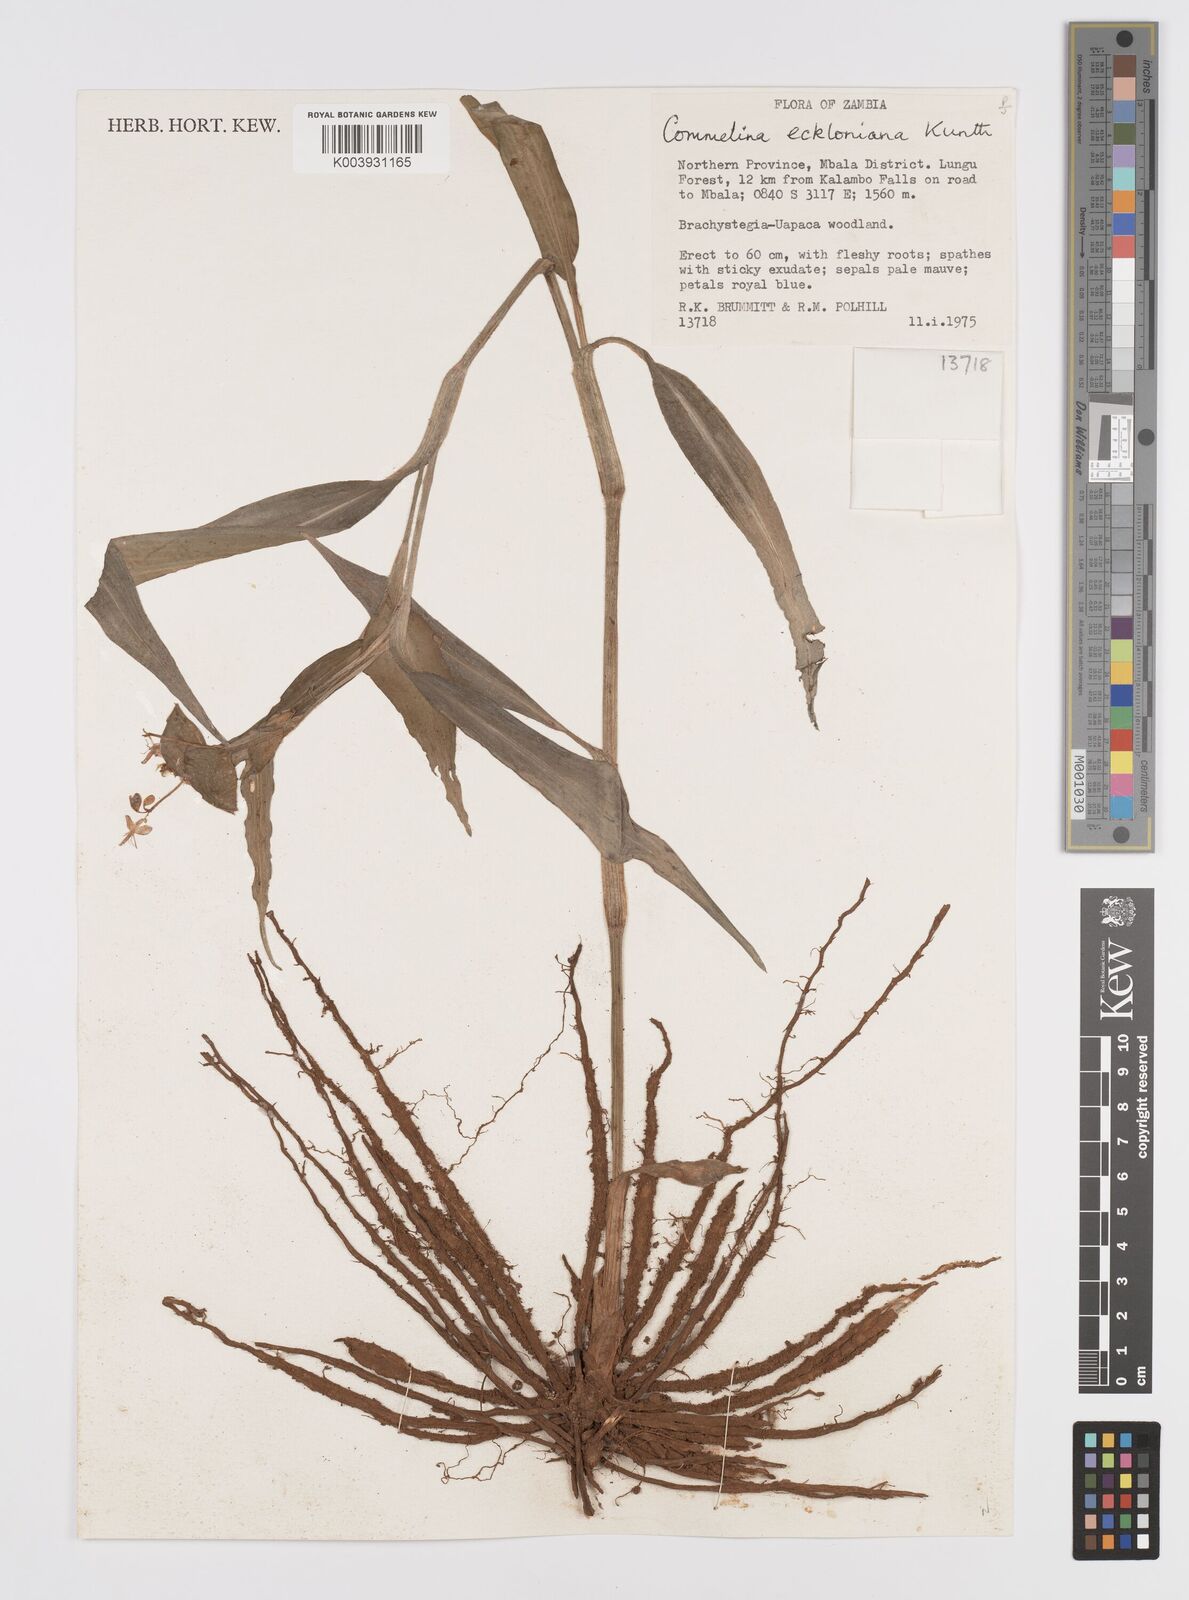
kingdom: Plantae
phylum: Tracheophyta
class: Liliopsida
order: Commelinales
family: Commelinaceae
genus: Commelina
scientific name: Commelina eckloniana
